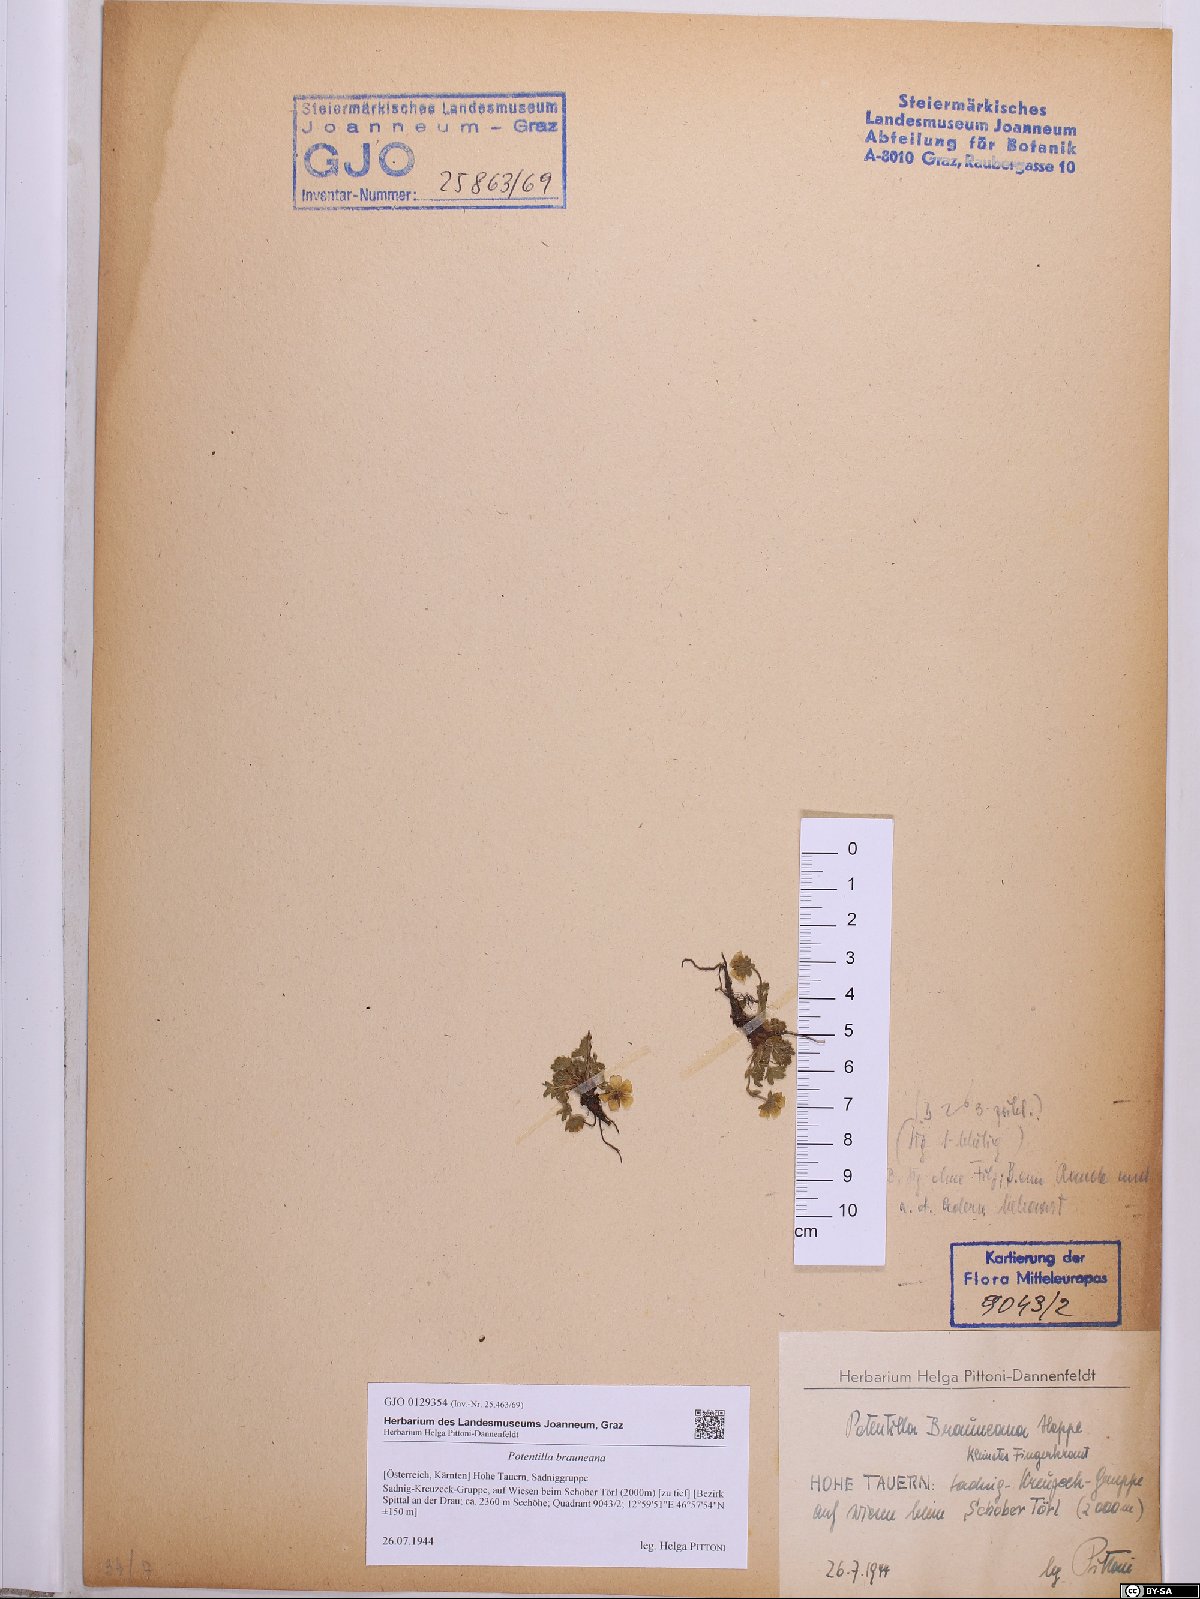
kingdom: Plantae
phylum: Tracheophyta
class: Magnoliopsida
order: Rosales
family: Rosaceae
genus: Potentilla
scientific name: Potentilla brauneana
